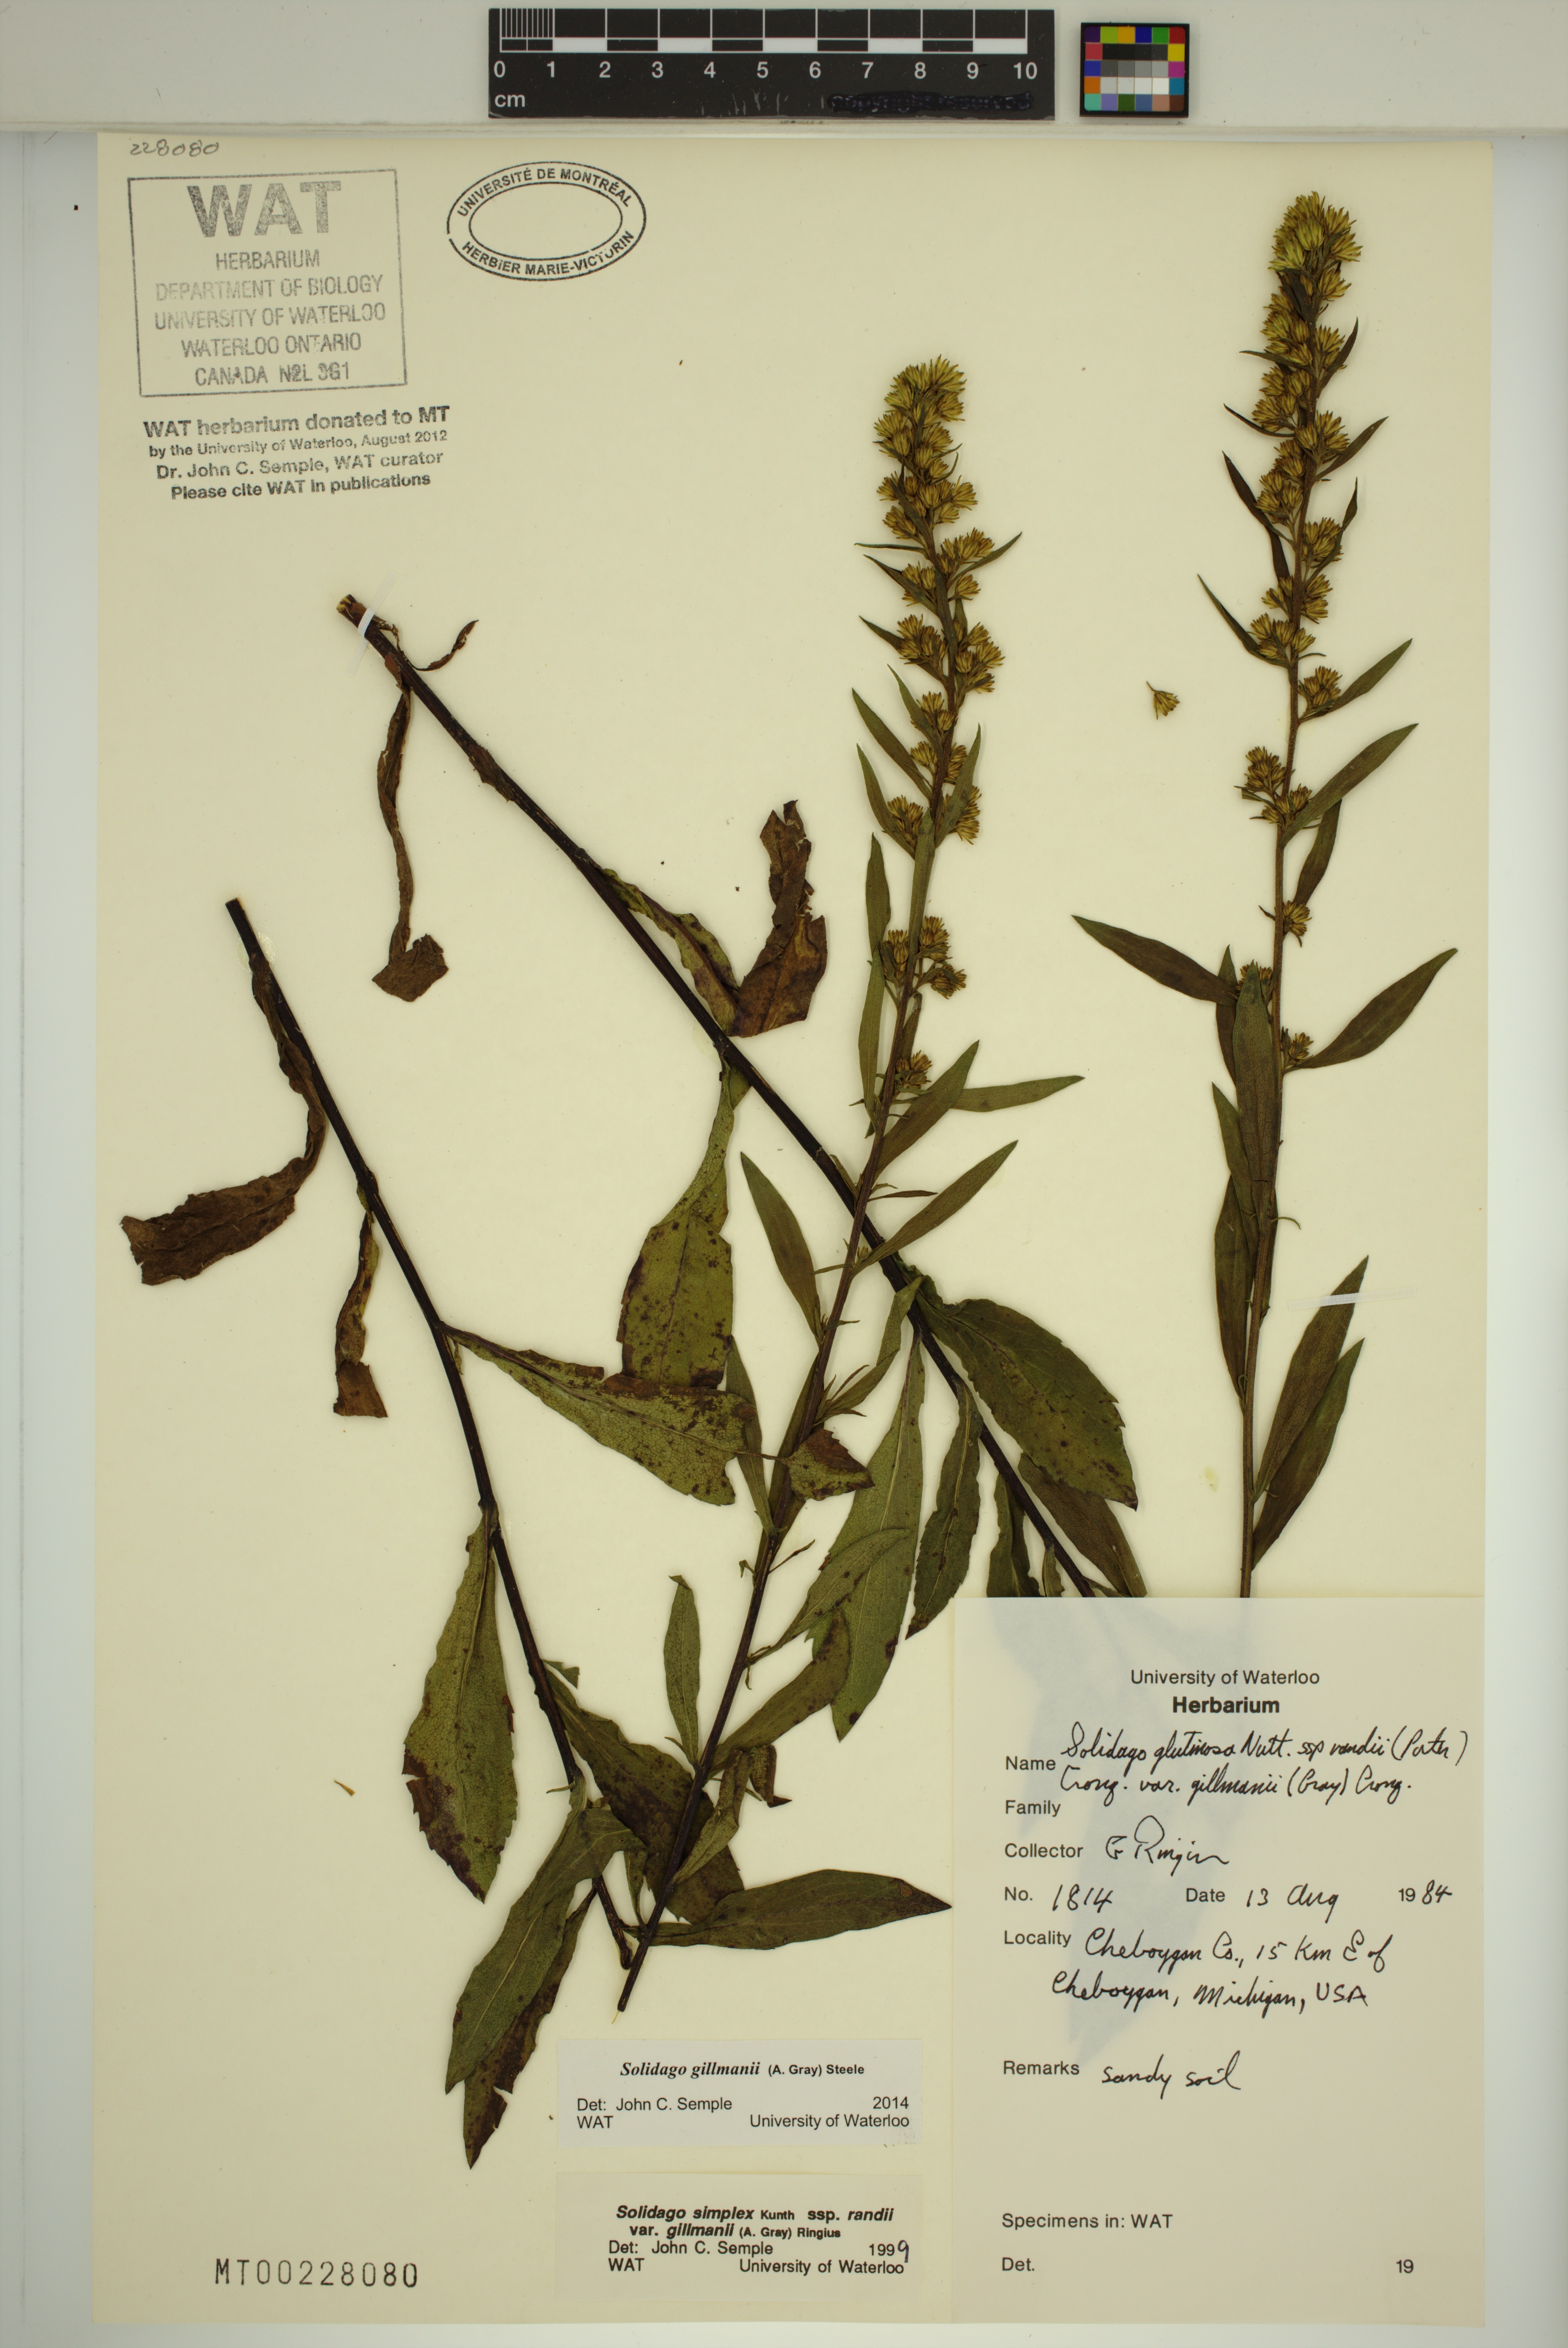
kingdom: Plantae
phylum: Tracheophyta
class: Magnoliopsida
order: Asterales
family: Asteraceae
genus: Solidago
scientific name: Solidago gillmanii
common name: Gillman's goldenrod
